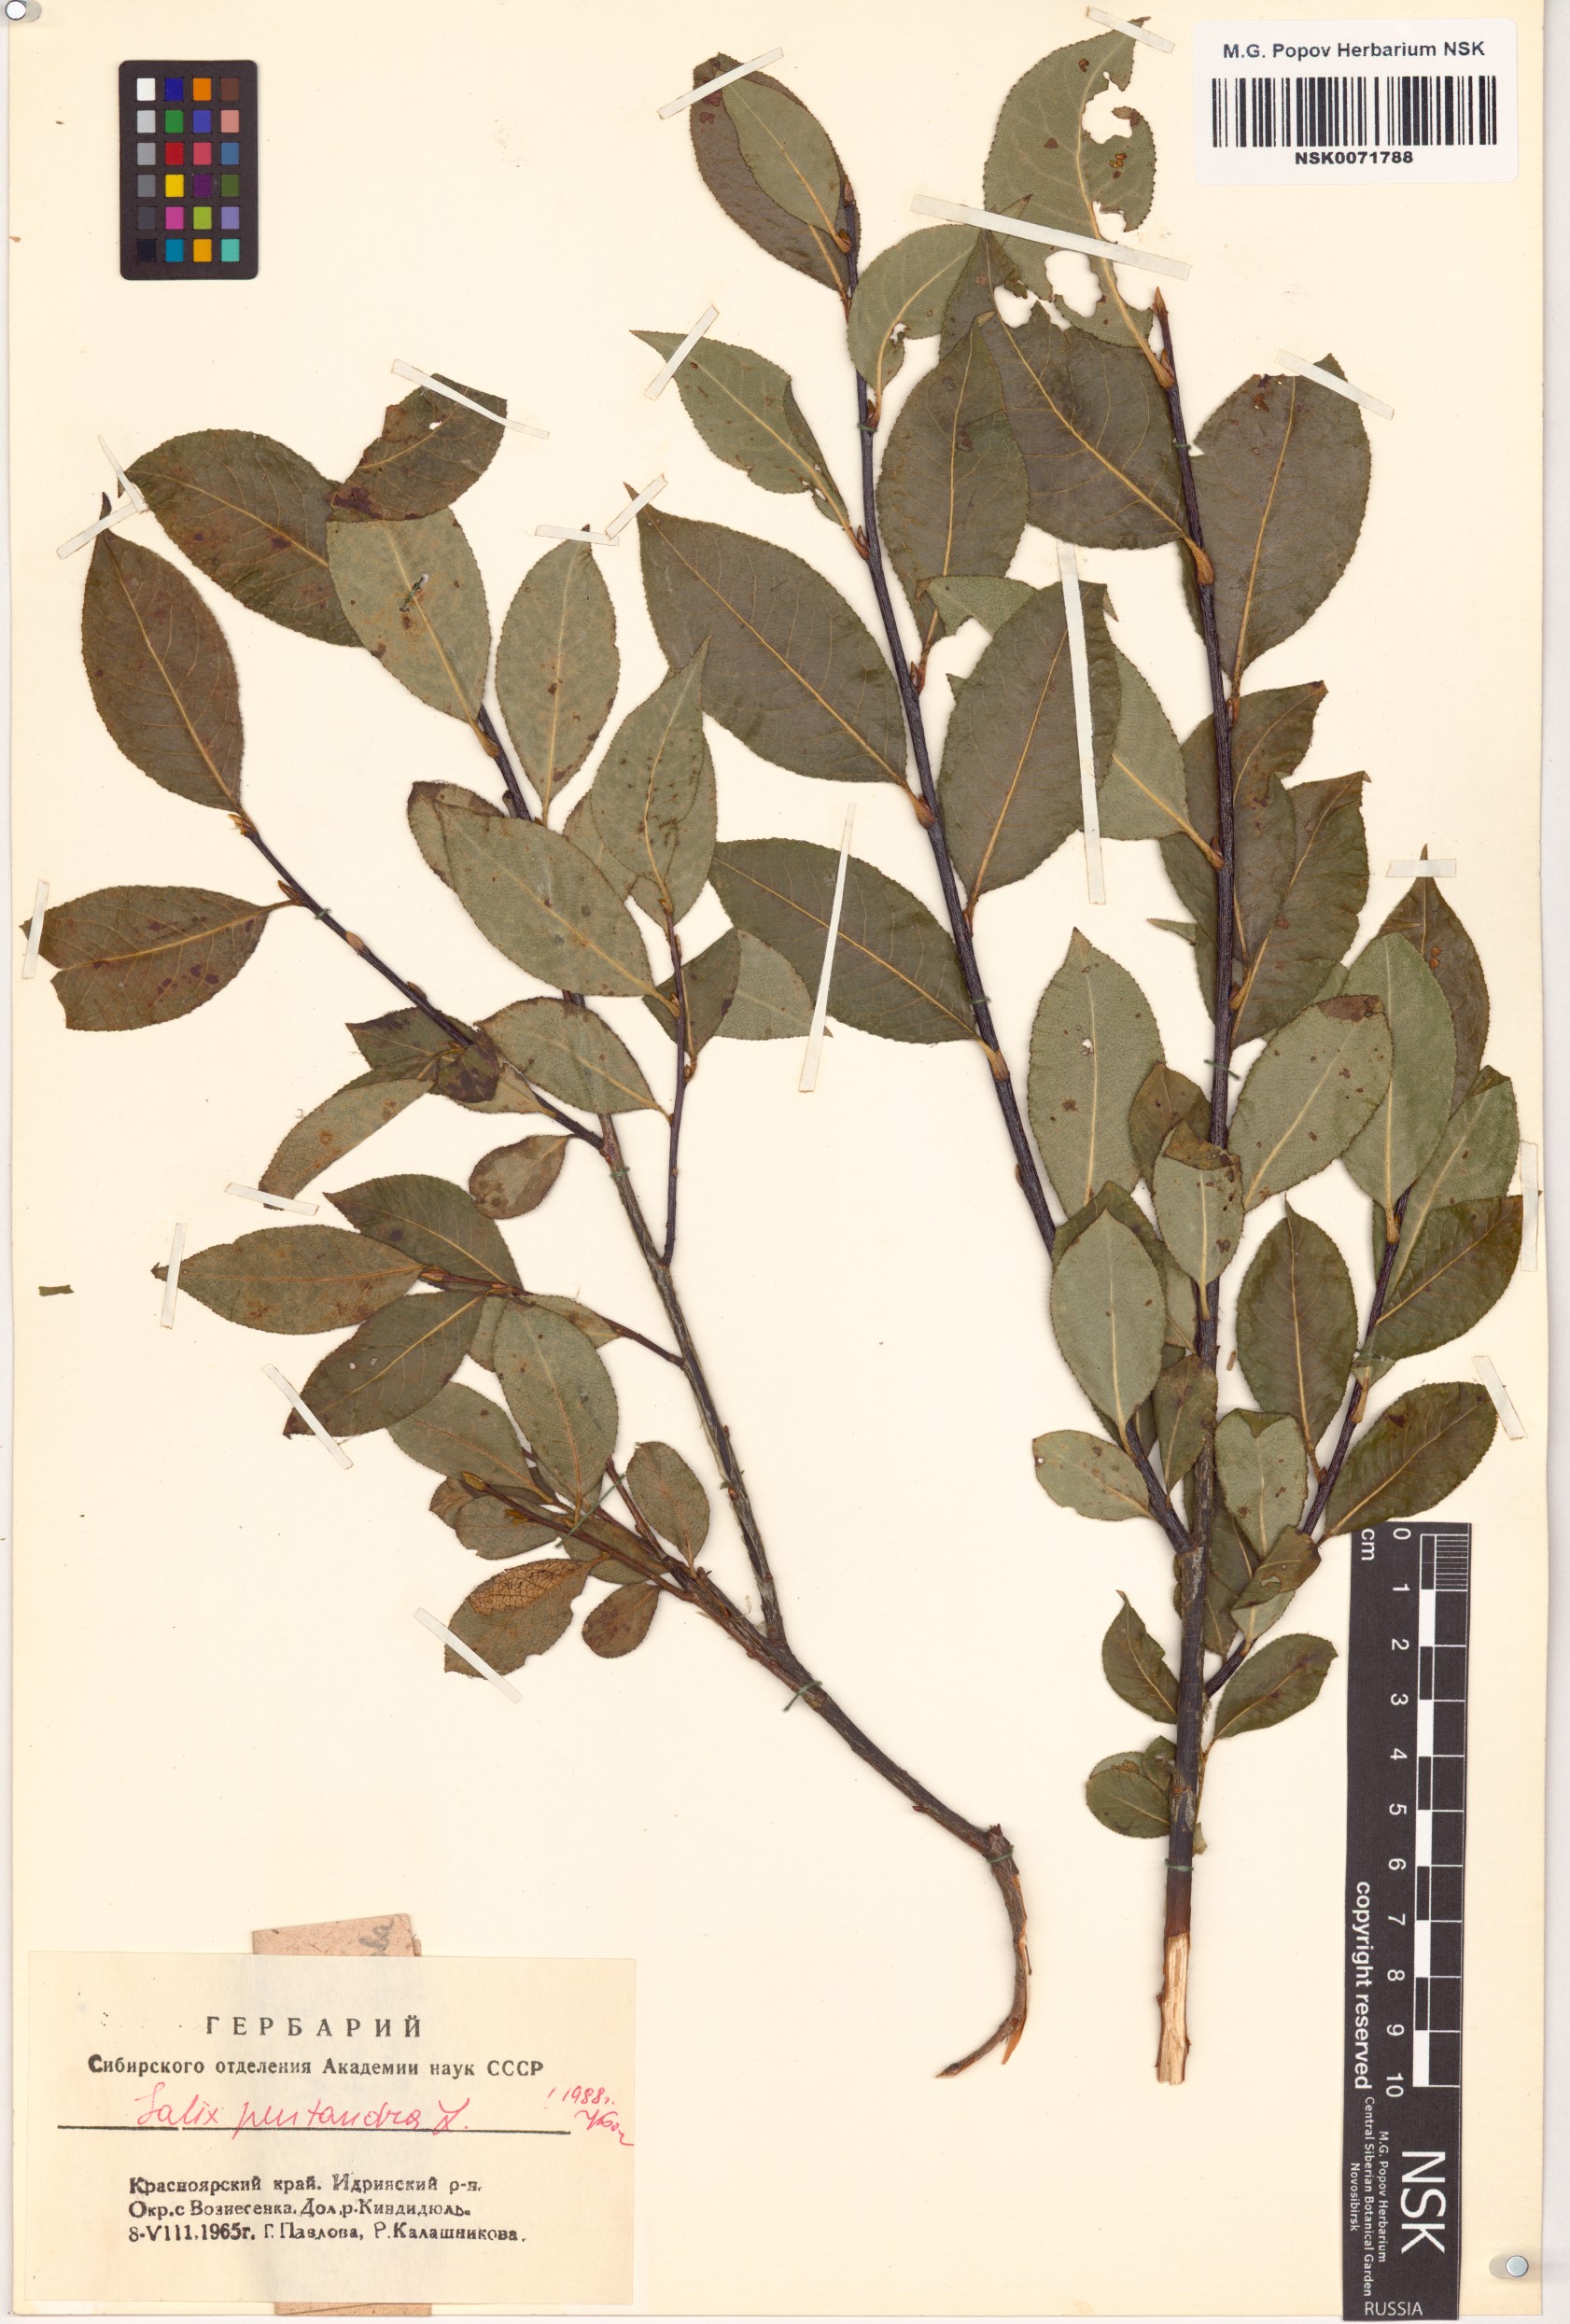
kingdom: Plantae
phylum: Tracheophyta
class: Magnoliopsida
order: Malpighiales
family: Salicaceae
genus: Salix
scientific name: Salix pentandra
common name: Bay willow
